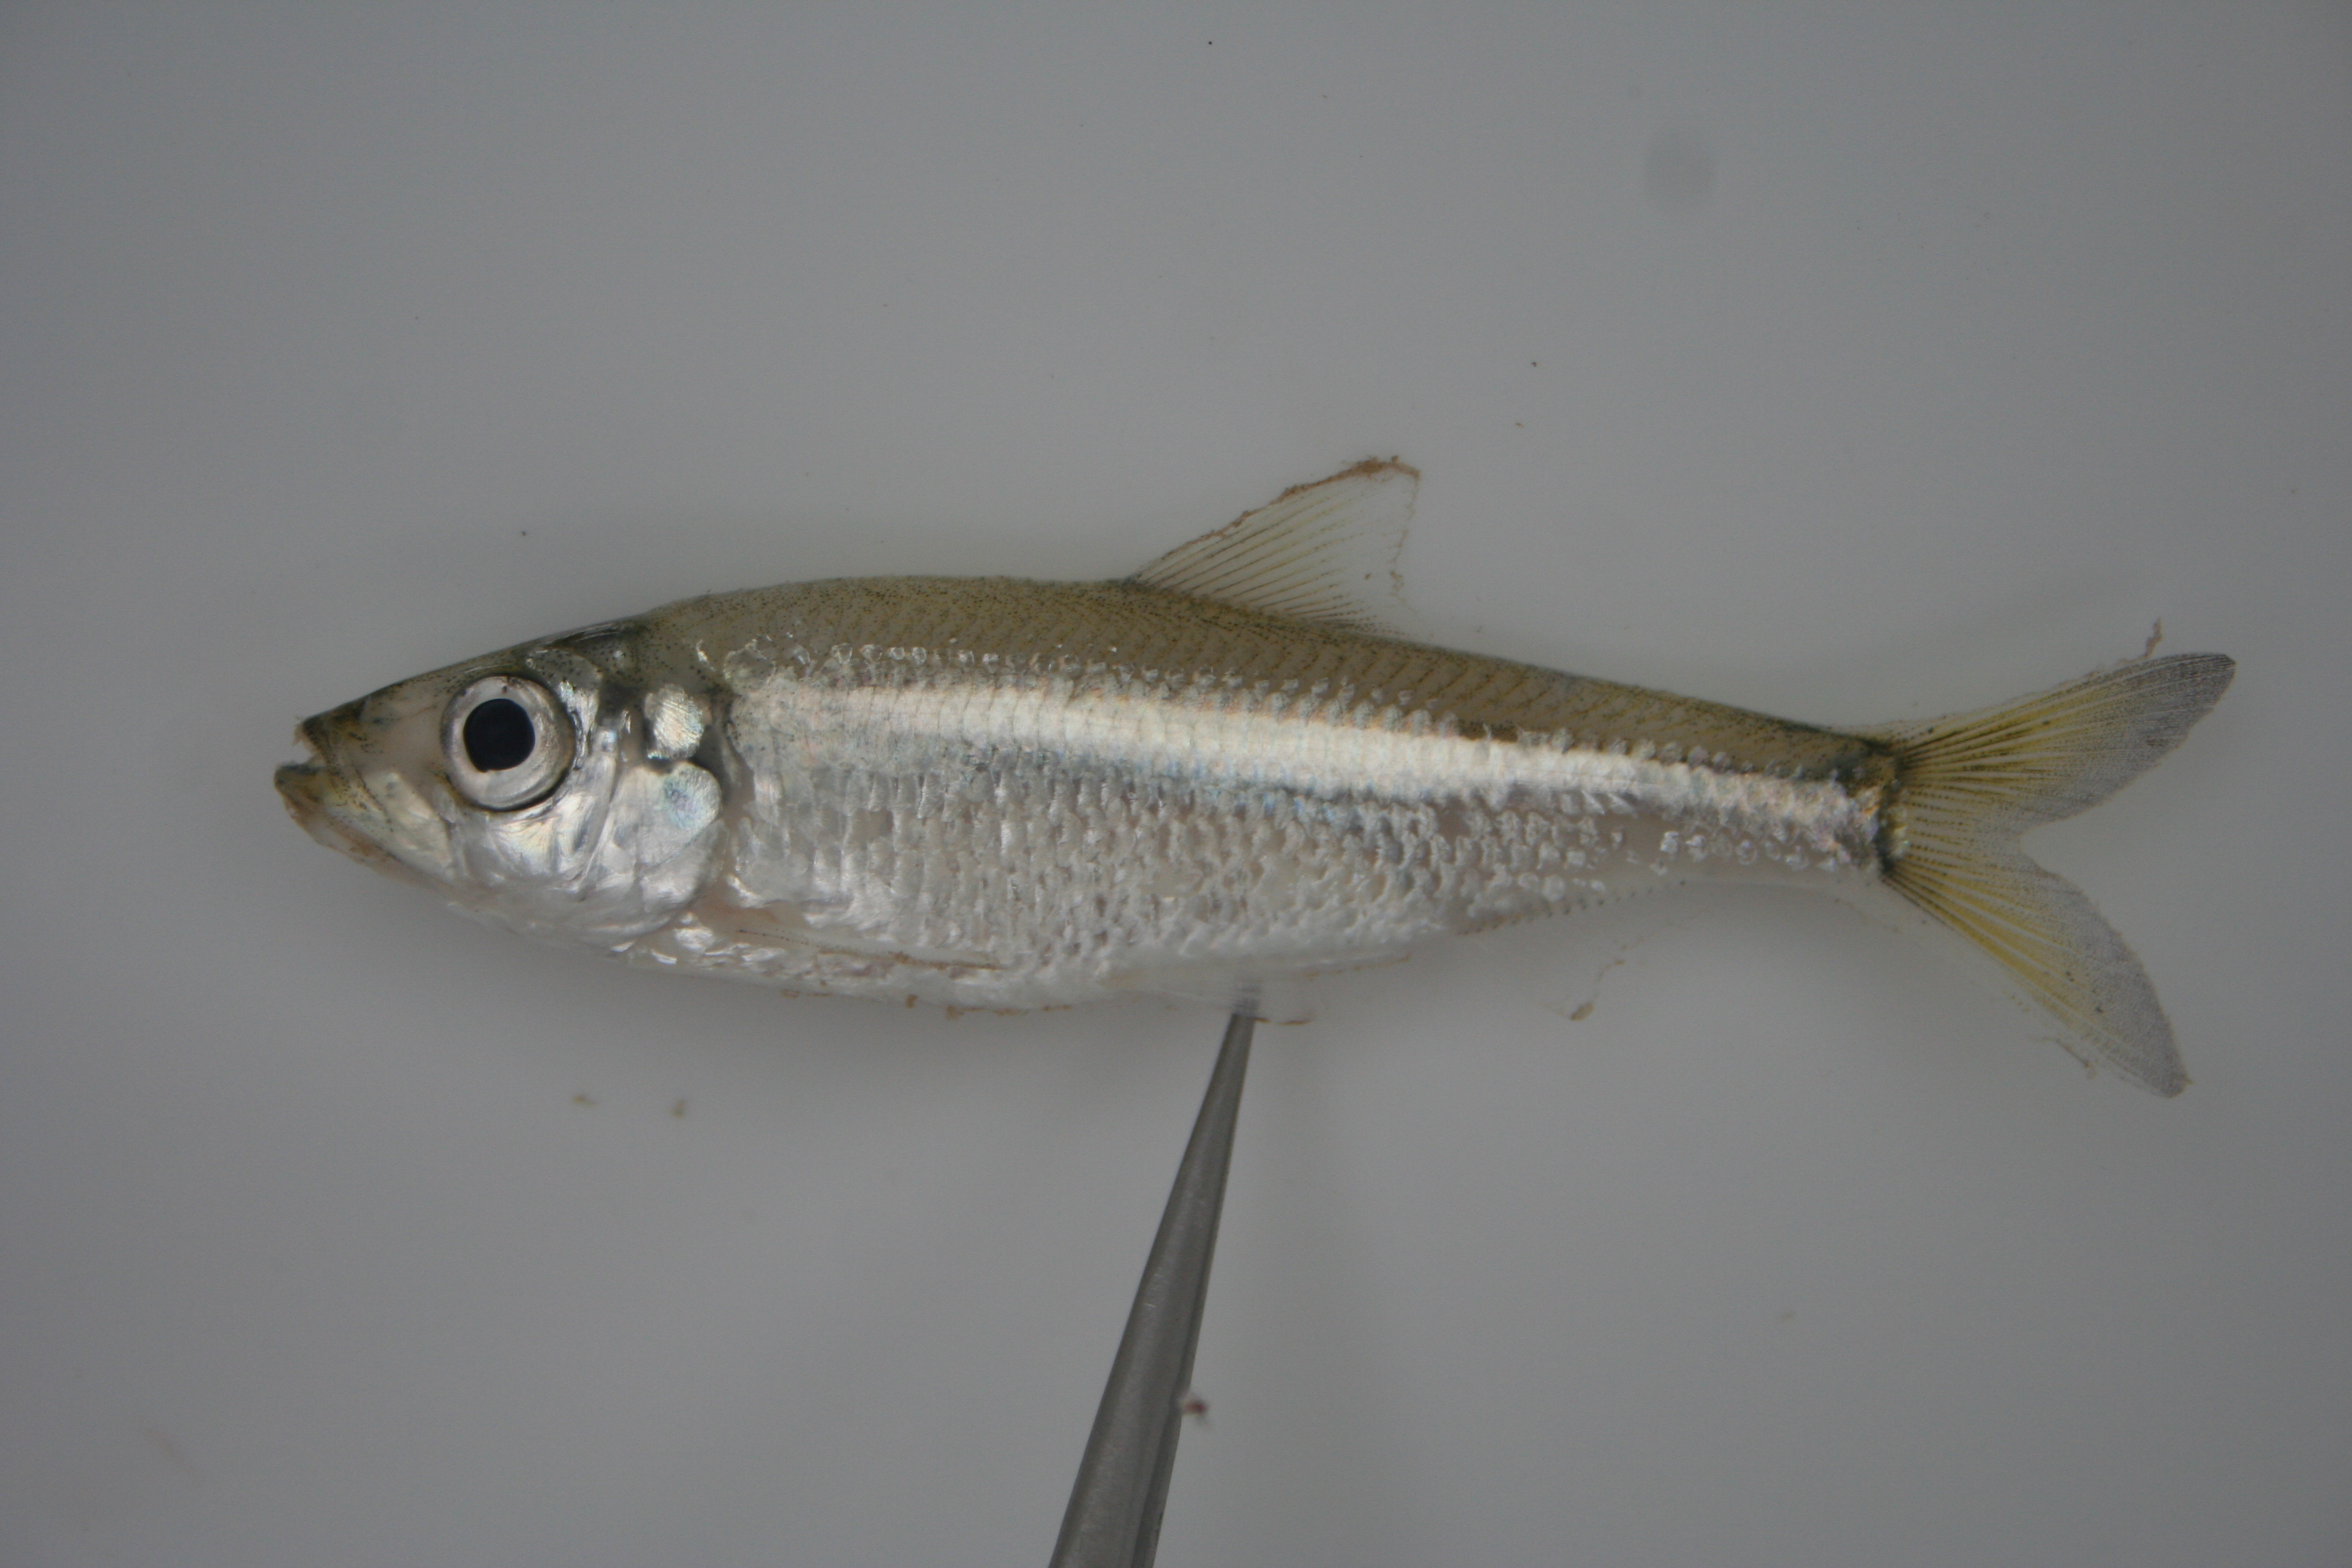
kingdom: Animalia
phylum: Chordata
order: Clupeiformes
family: Clupeidae
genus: Pellonula
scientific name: Pellonula
